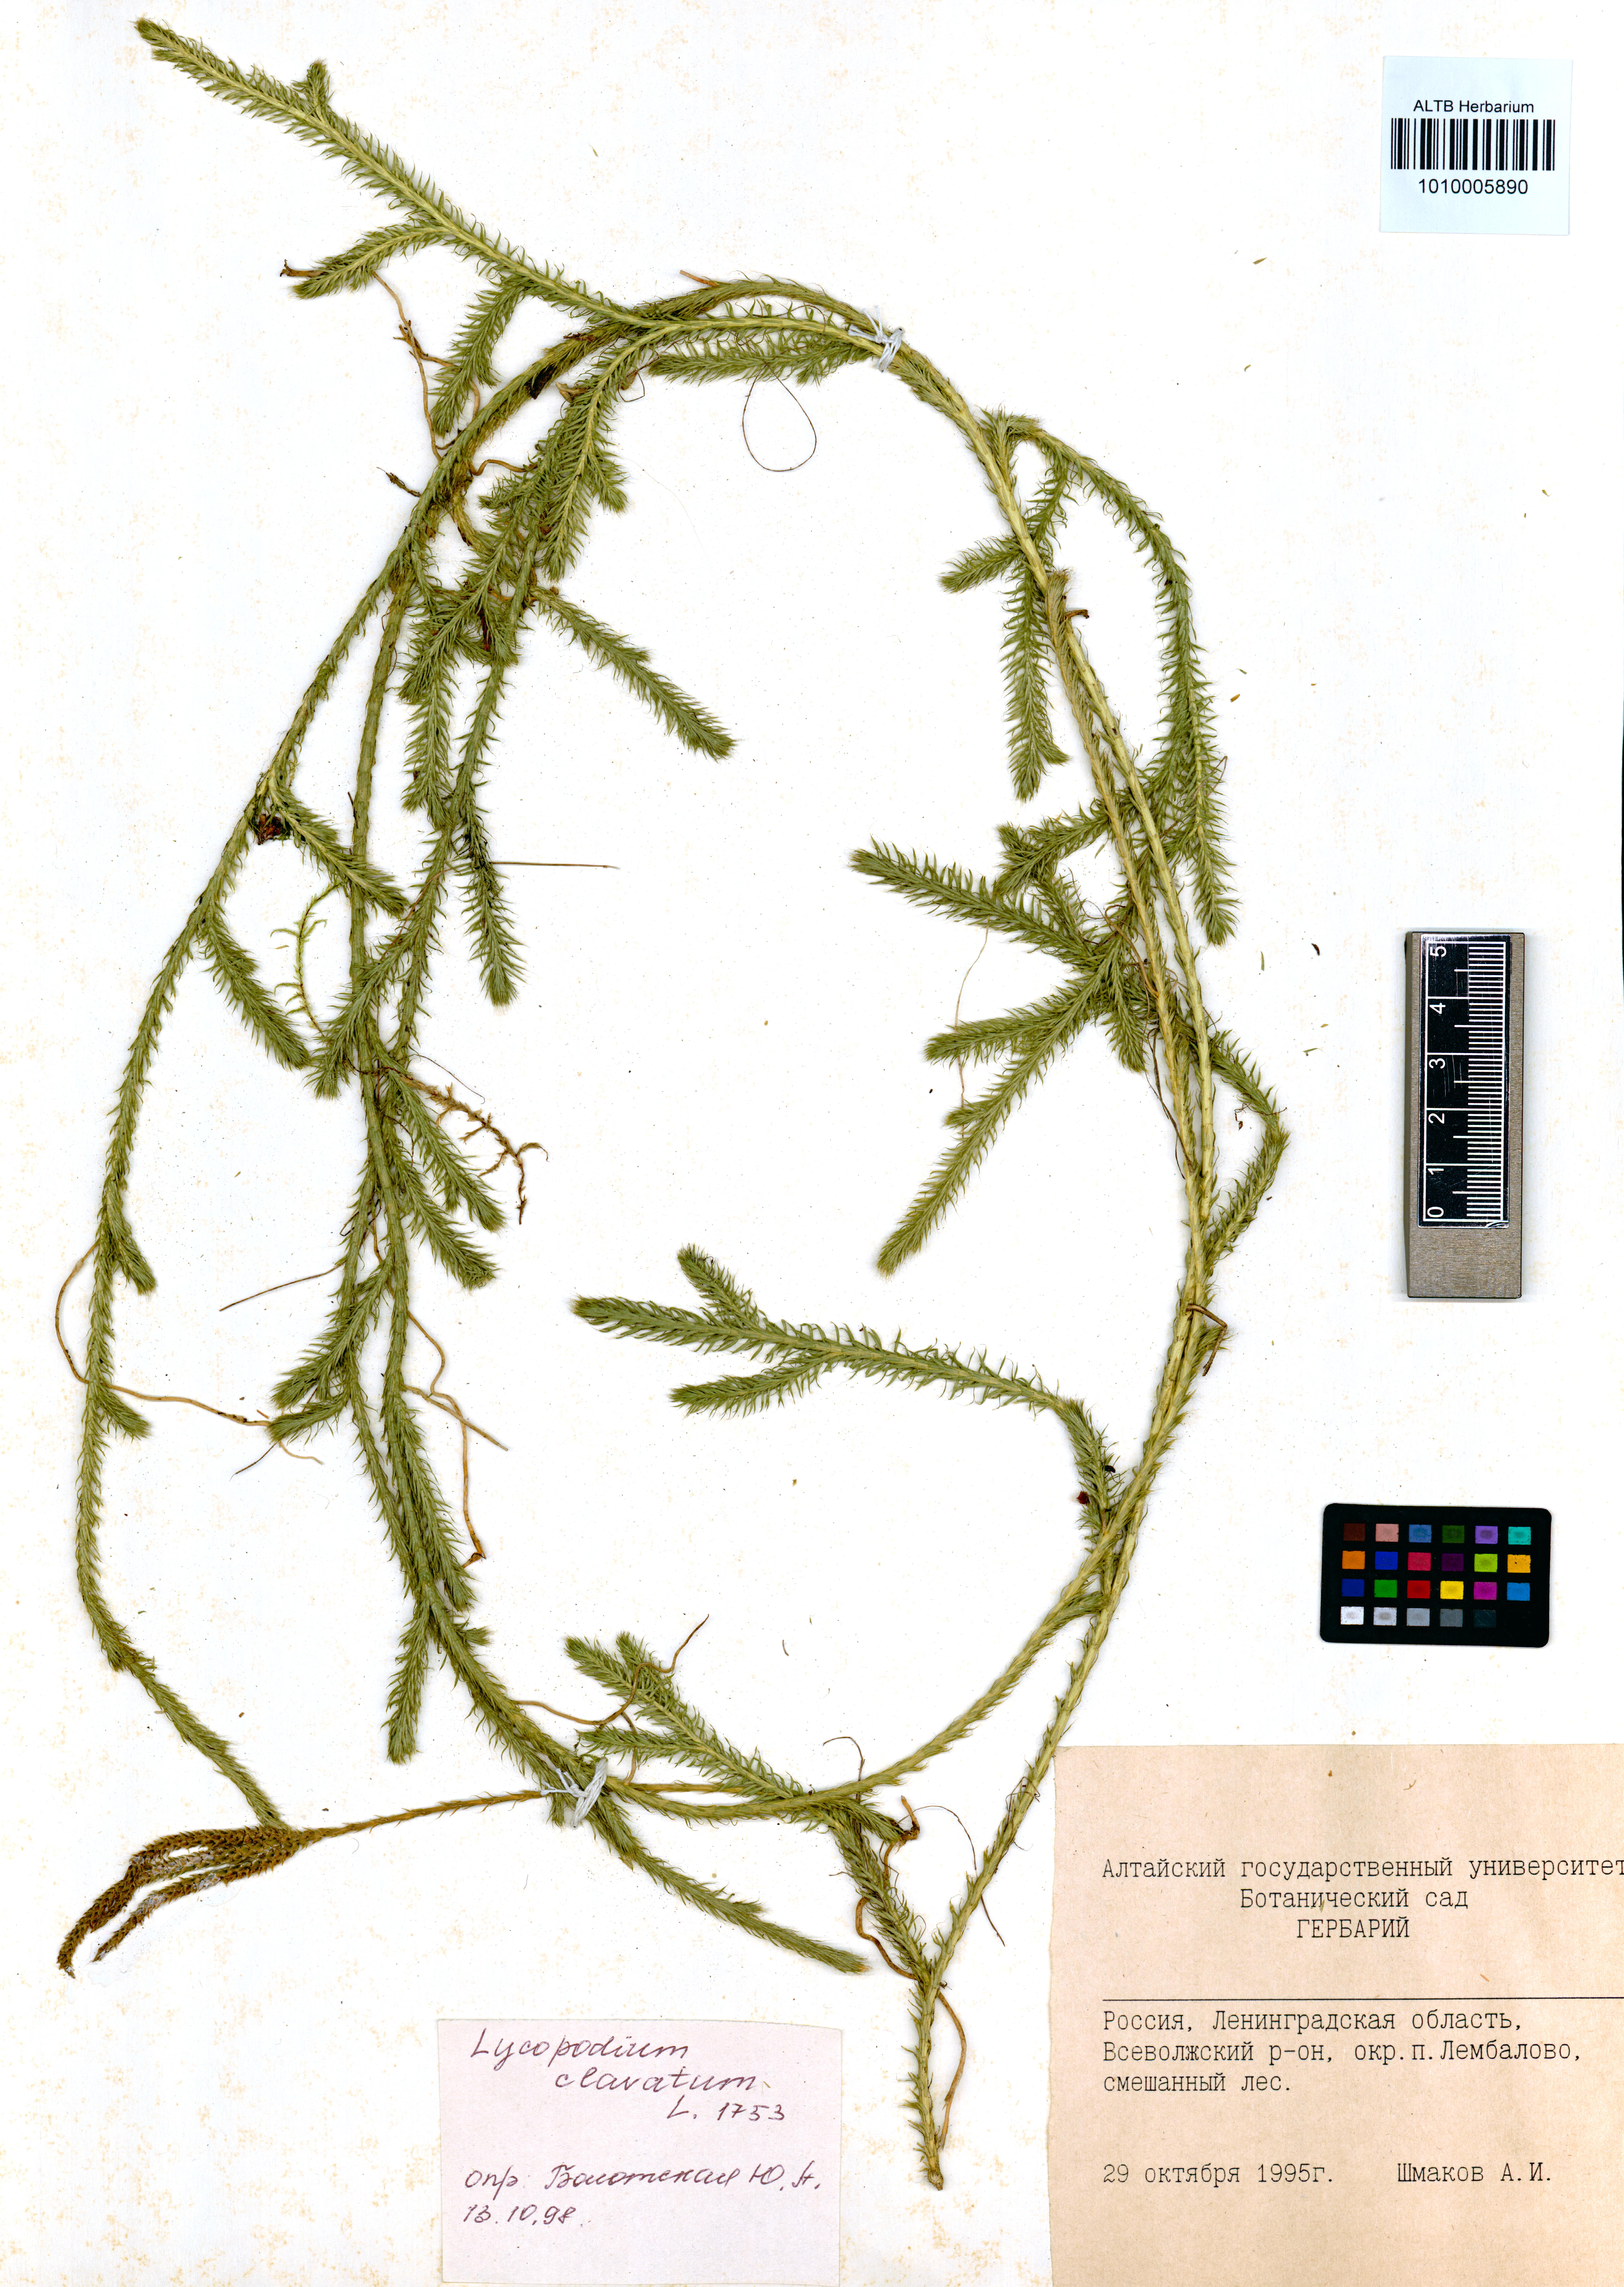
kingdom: Plantae
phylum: Tracheophyta
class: Lycopodiopsida
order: Lycopodiales
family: Lycopodiaceae
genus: Lycopodium
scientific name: Lycopodium clavatum
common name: Stag's-horn clubmoss
